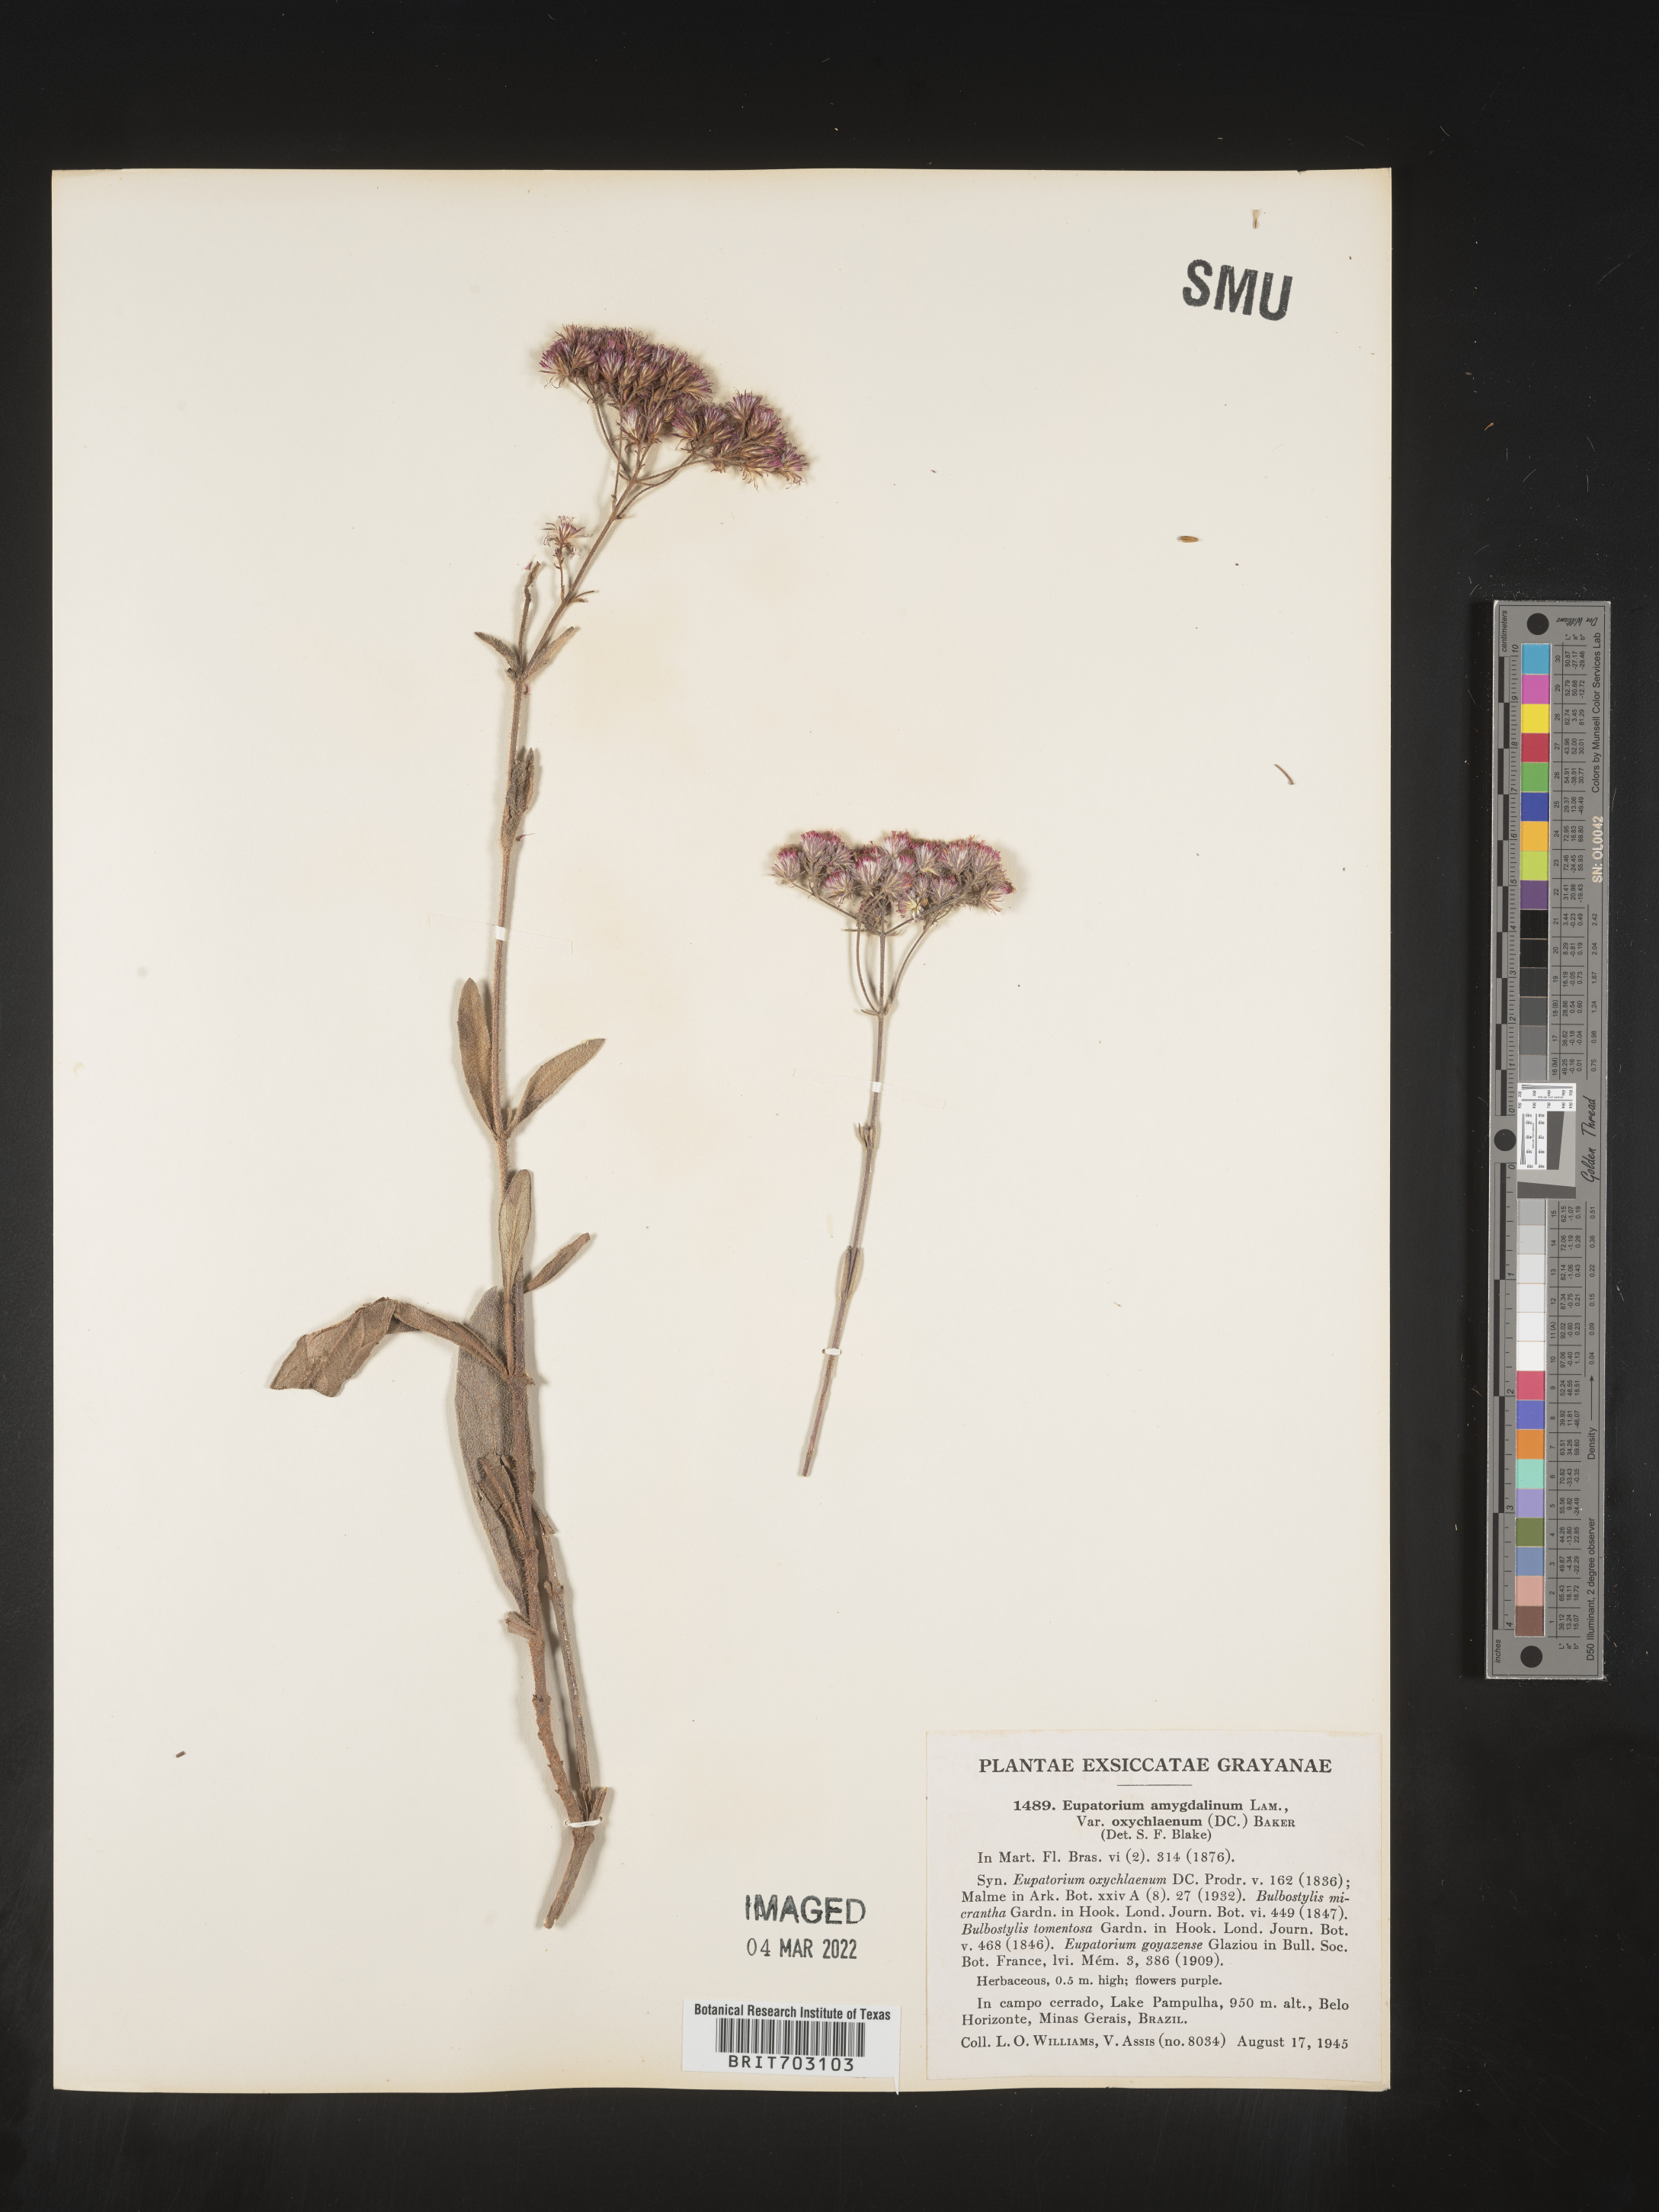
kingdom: Plantae
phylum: Tracheophyta
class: Magnoliopsida
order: Asterales
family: Asteraceae
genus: Eupatorium
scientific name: Eupatorium
